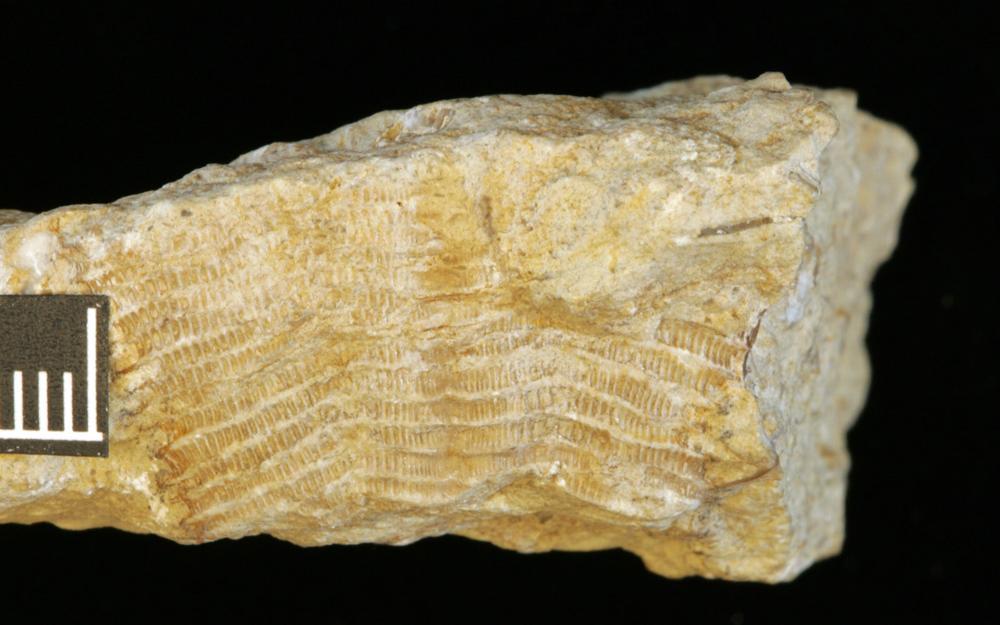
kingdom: Animalia
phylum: Cnidaria
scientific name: Cnidaria
